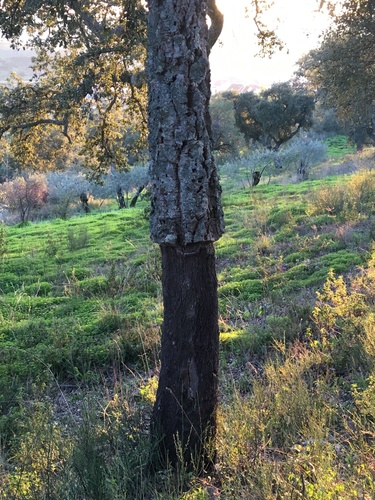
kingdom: Plantae
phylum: Tracheophyta
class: Magnoliopsida
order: Fagales
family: Fagaceae
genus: Quercus
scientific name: Quercus suber
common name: Cork oak
